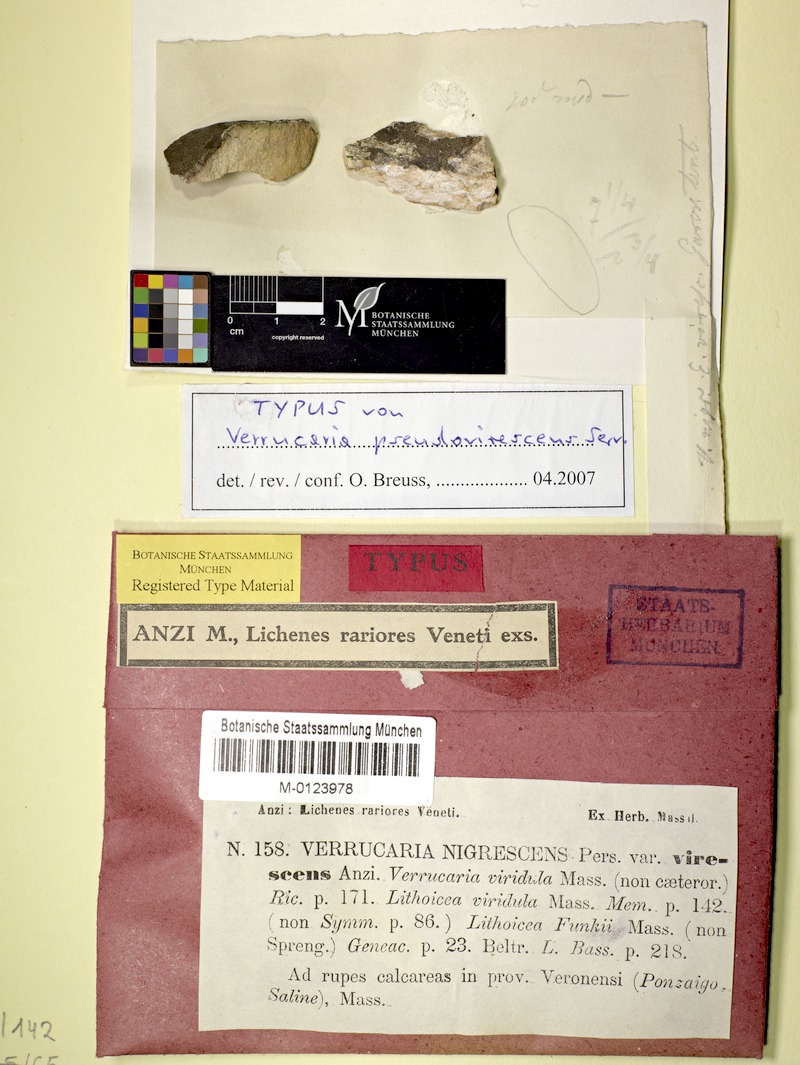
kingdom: Fungi
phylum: Ascomycota
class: Eurotiomycetes
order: Verrucariales
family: Verrucariaceae
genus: Verrucaria
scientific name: Verrucaria pseudonigrescens
